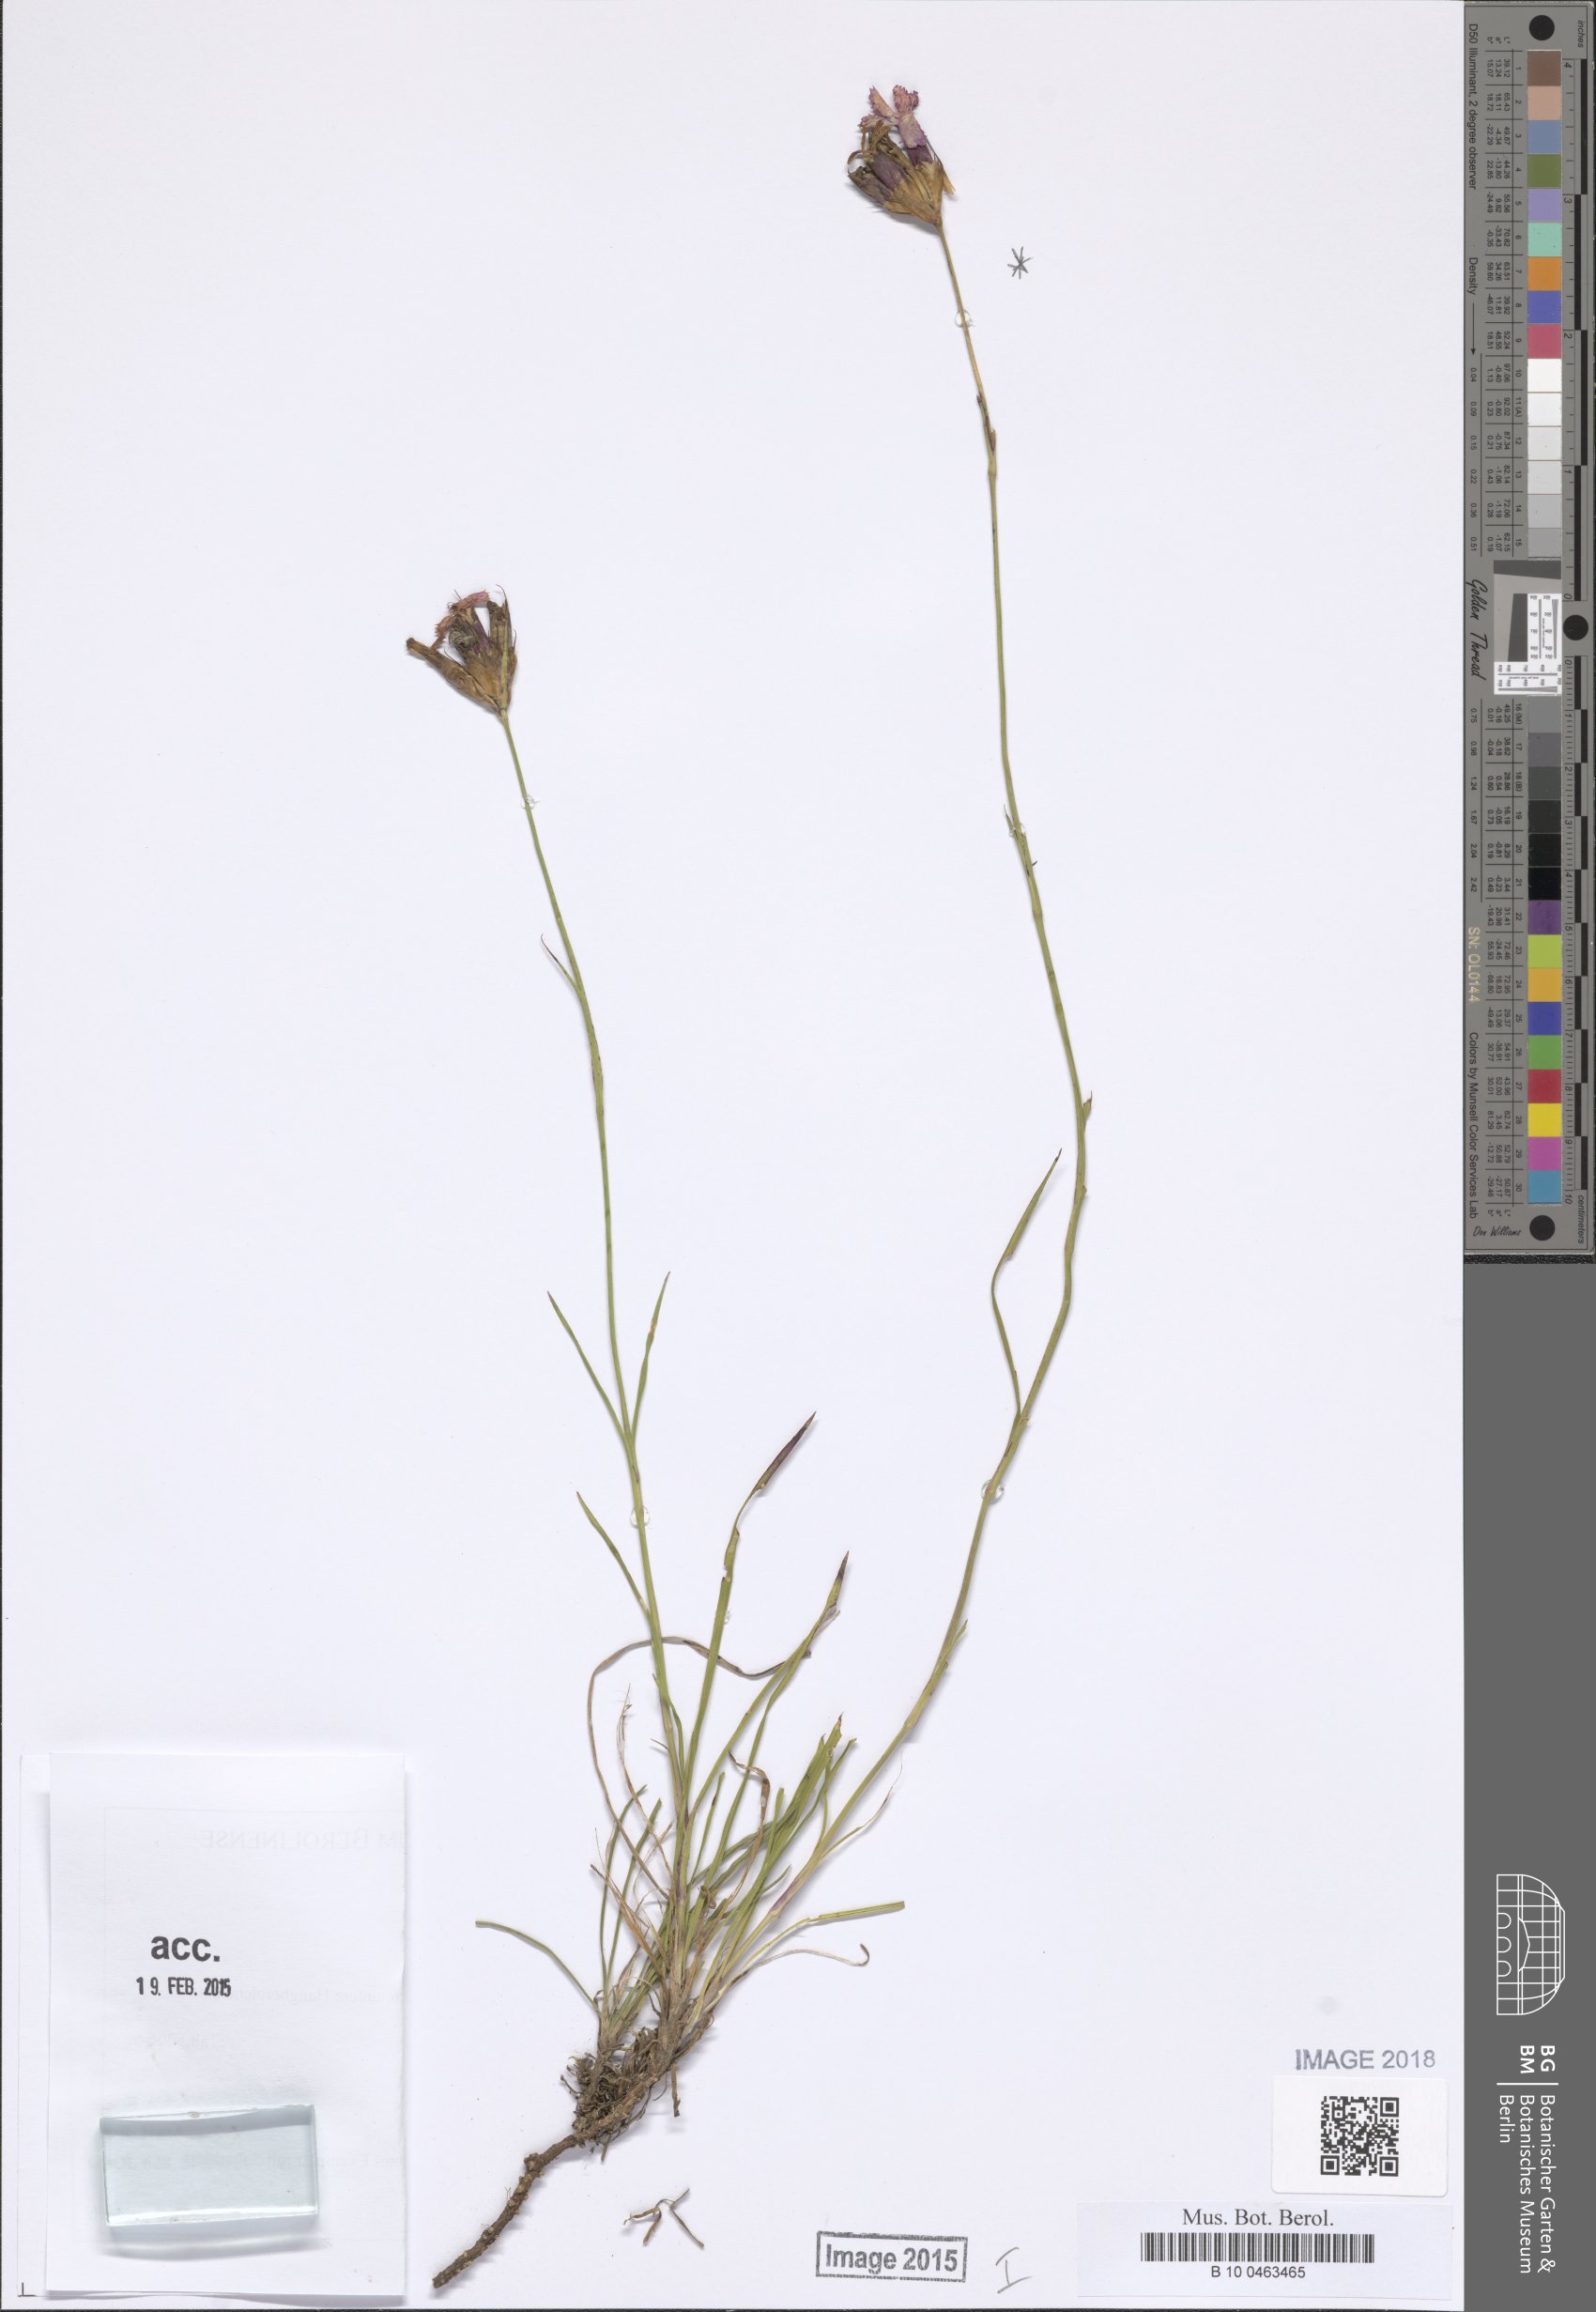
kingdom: Plantae
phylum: Tracheophyta
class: Magnoliopsida
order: Caryophyllales
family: Caryophyllaceae
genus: Dianthus
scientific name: Dianthus carthusianorum
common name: Carthusian pink
